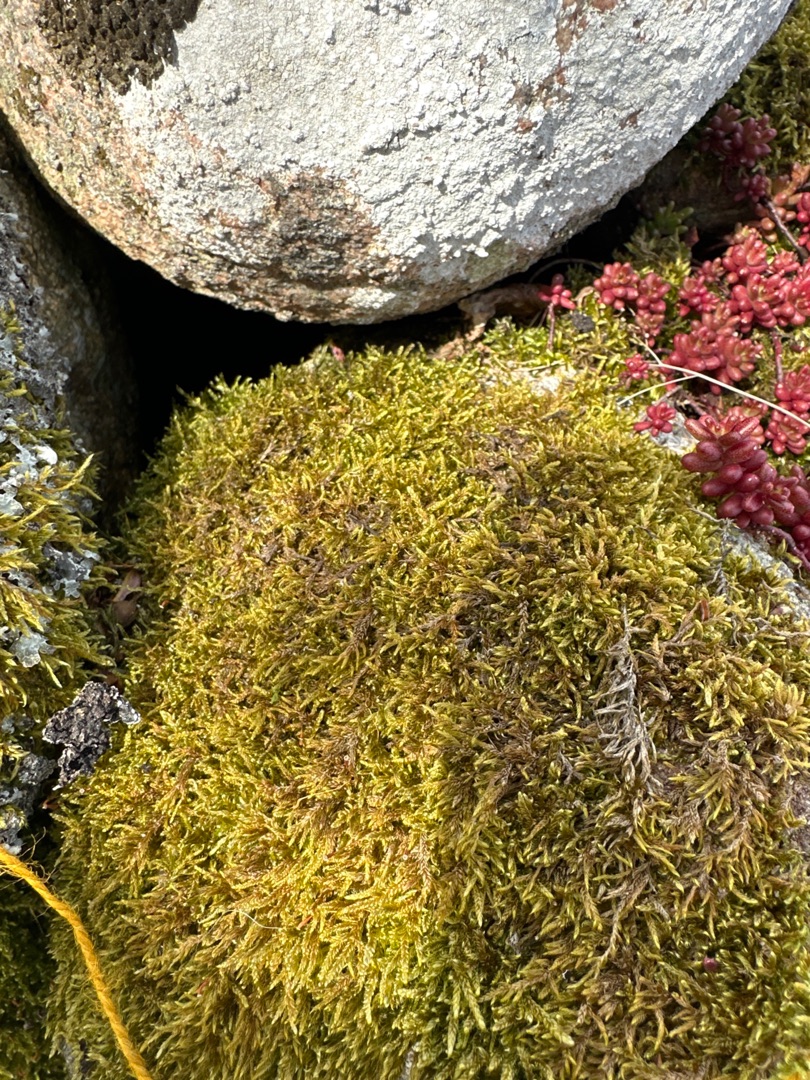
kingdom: Plantae
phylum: Bryophyta
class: Bryopsida
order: Hypnales
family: Hypnaceae
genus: Hypnum
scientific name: Hypnum cupressiforme
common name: Almindelig cypresmos
